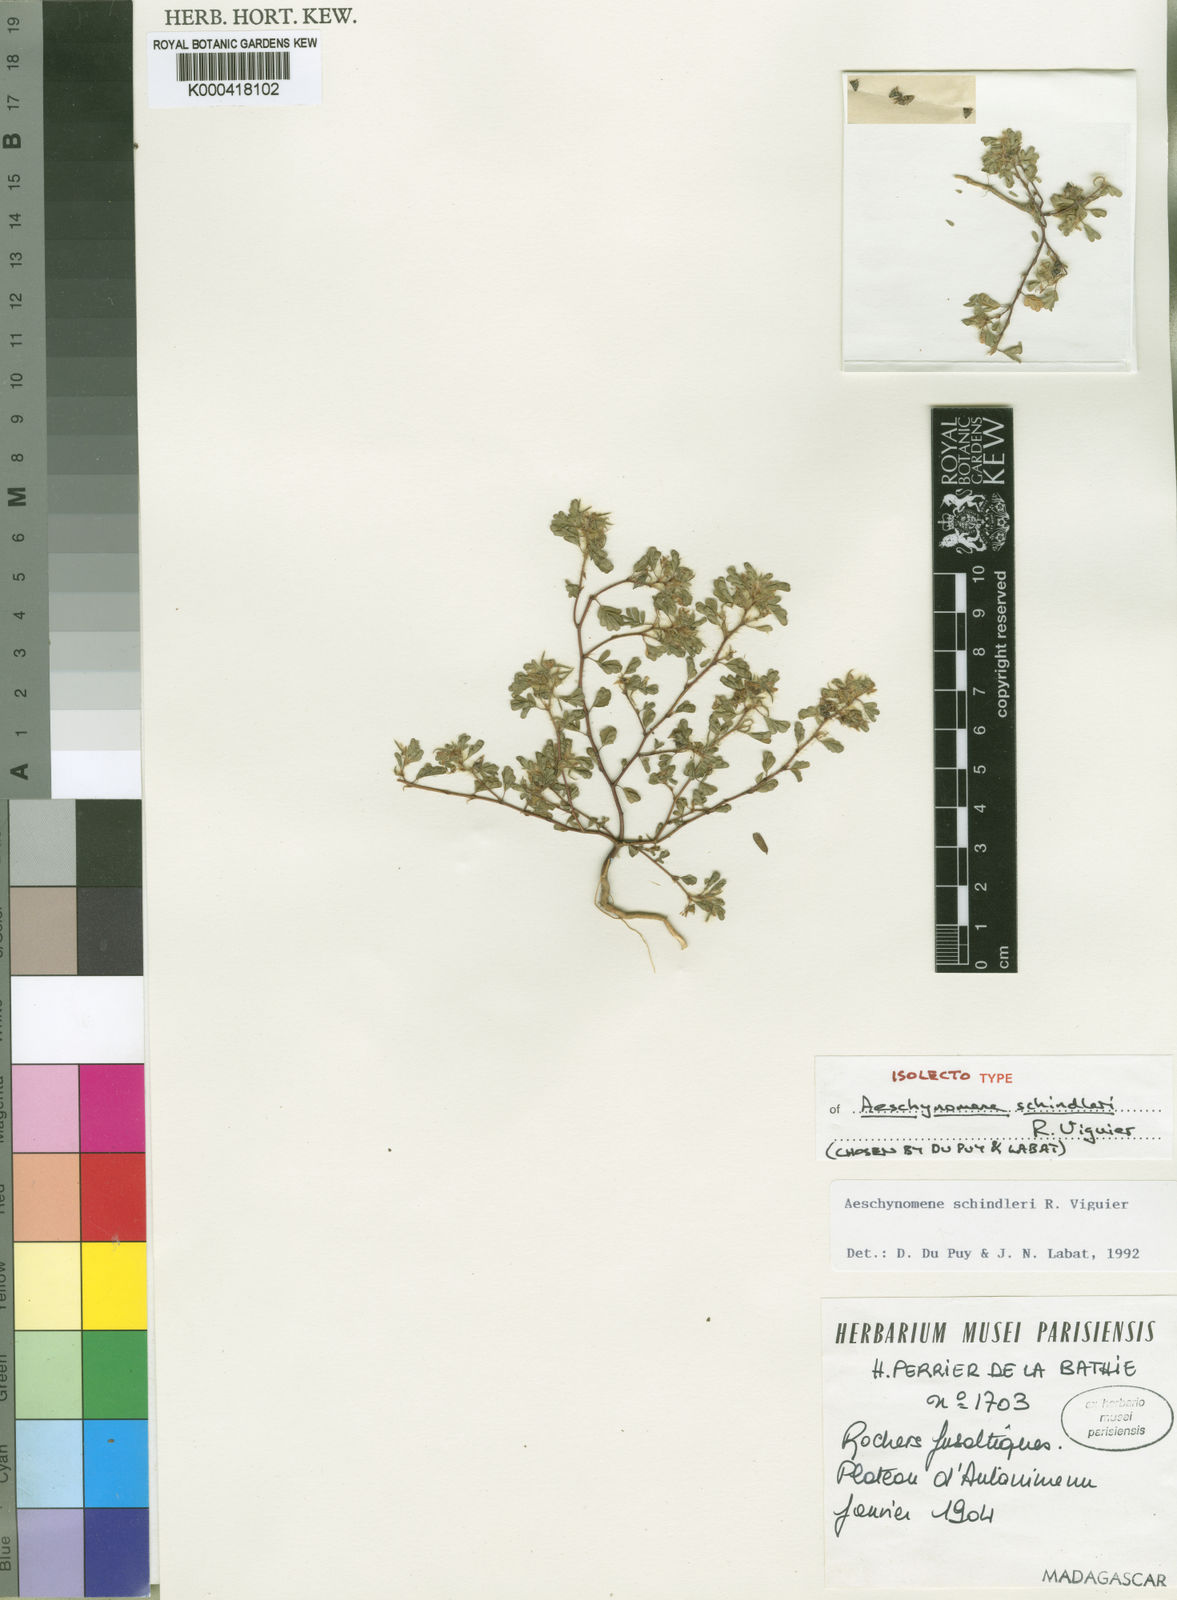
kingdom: Plantae
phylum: Tracheophyta
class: Magnoliopsida
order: Fabales
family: Fabaceae
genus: Aeschynomene
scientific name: Aeschynomene schindleri
